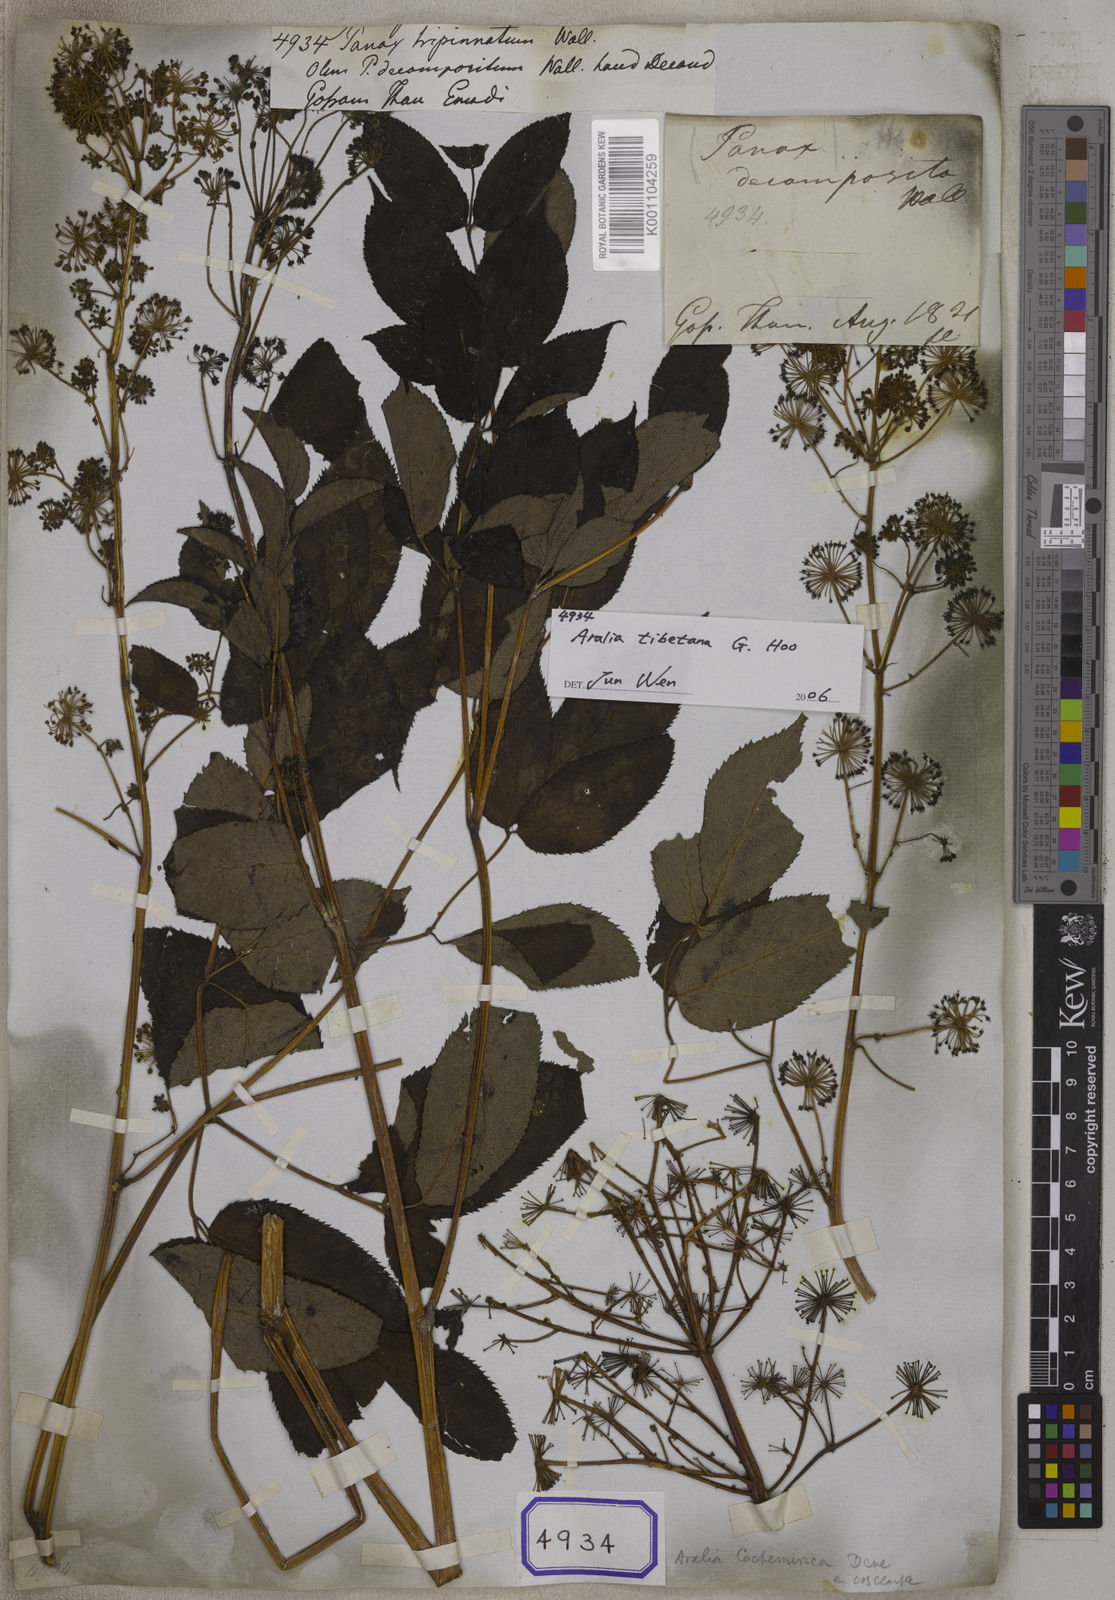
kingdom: Plantae
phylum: Tracheophyta
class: Magnoliopsida
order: Apiales
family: Araliaceae
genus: Panax
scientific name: Panax
